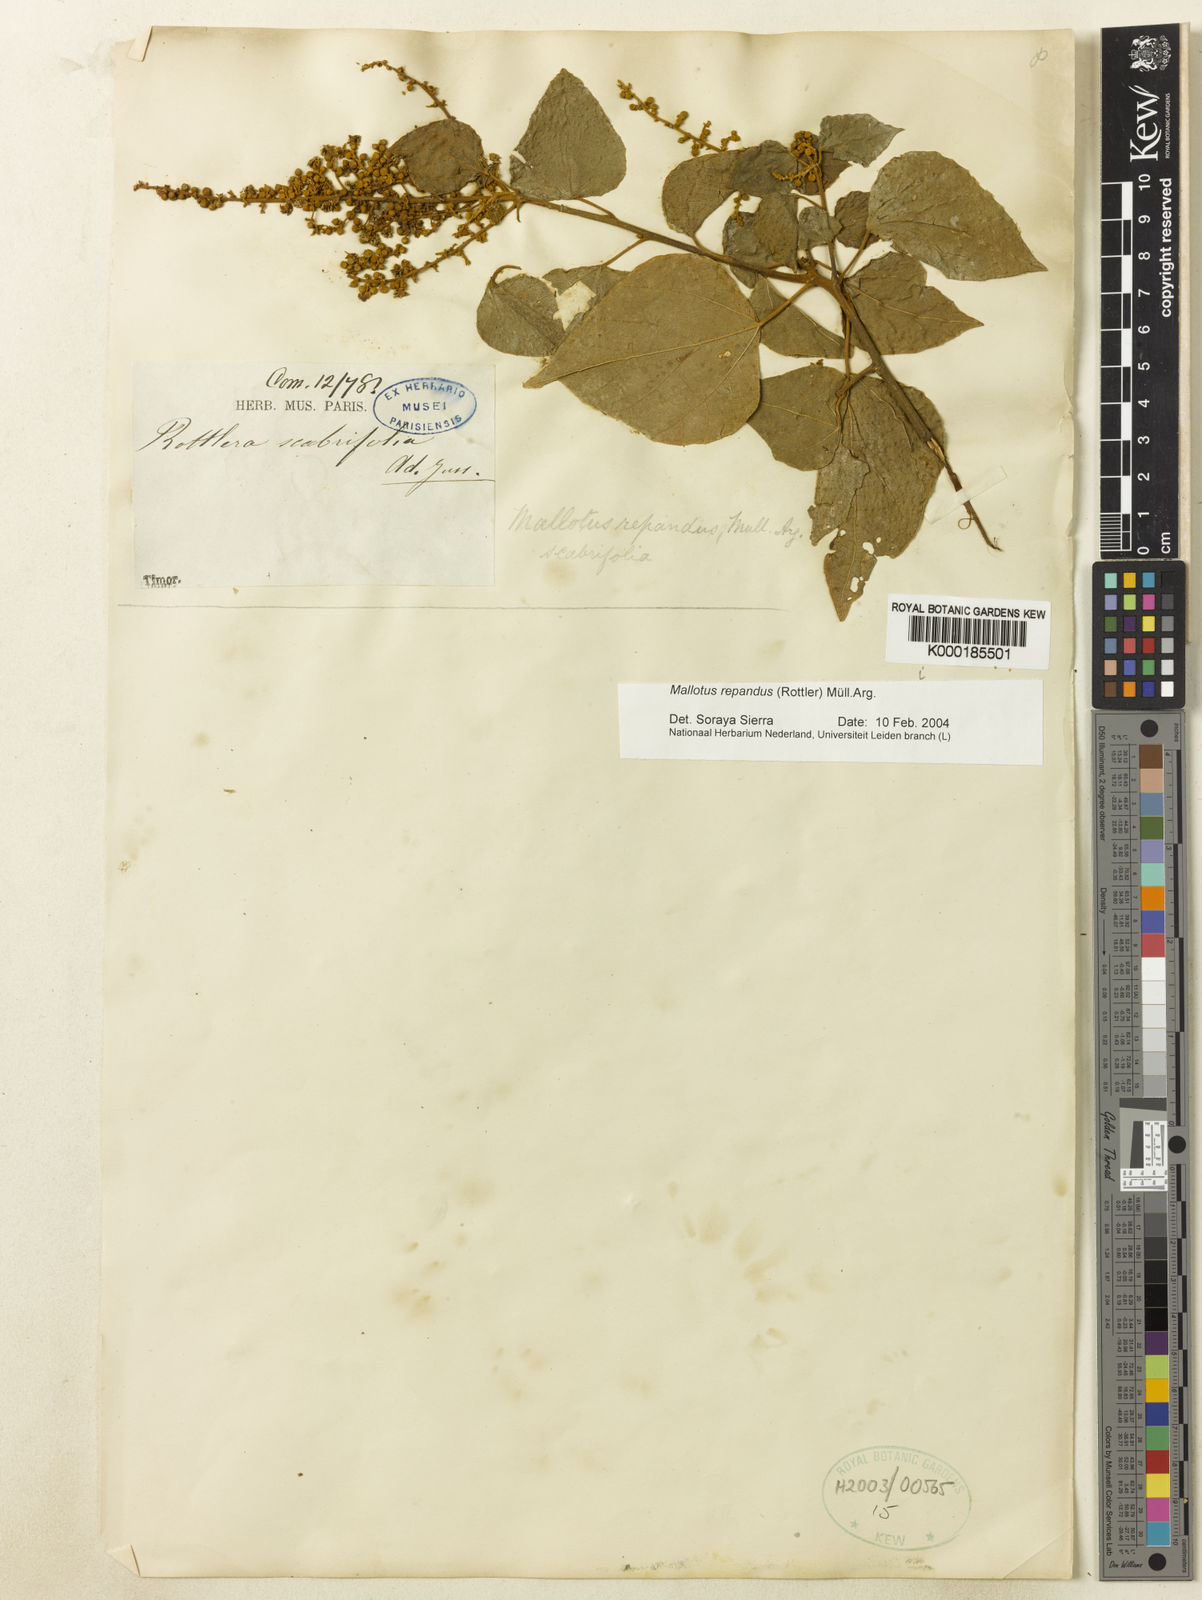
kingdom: Plantae
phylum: Tracheophyta
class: Magnoliopsida
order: Malpighiales
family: Euphorbiaceae
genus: Mallotus
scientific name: Mallotus
